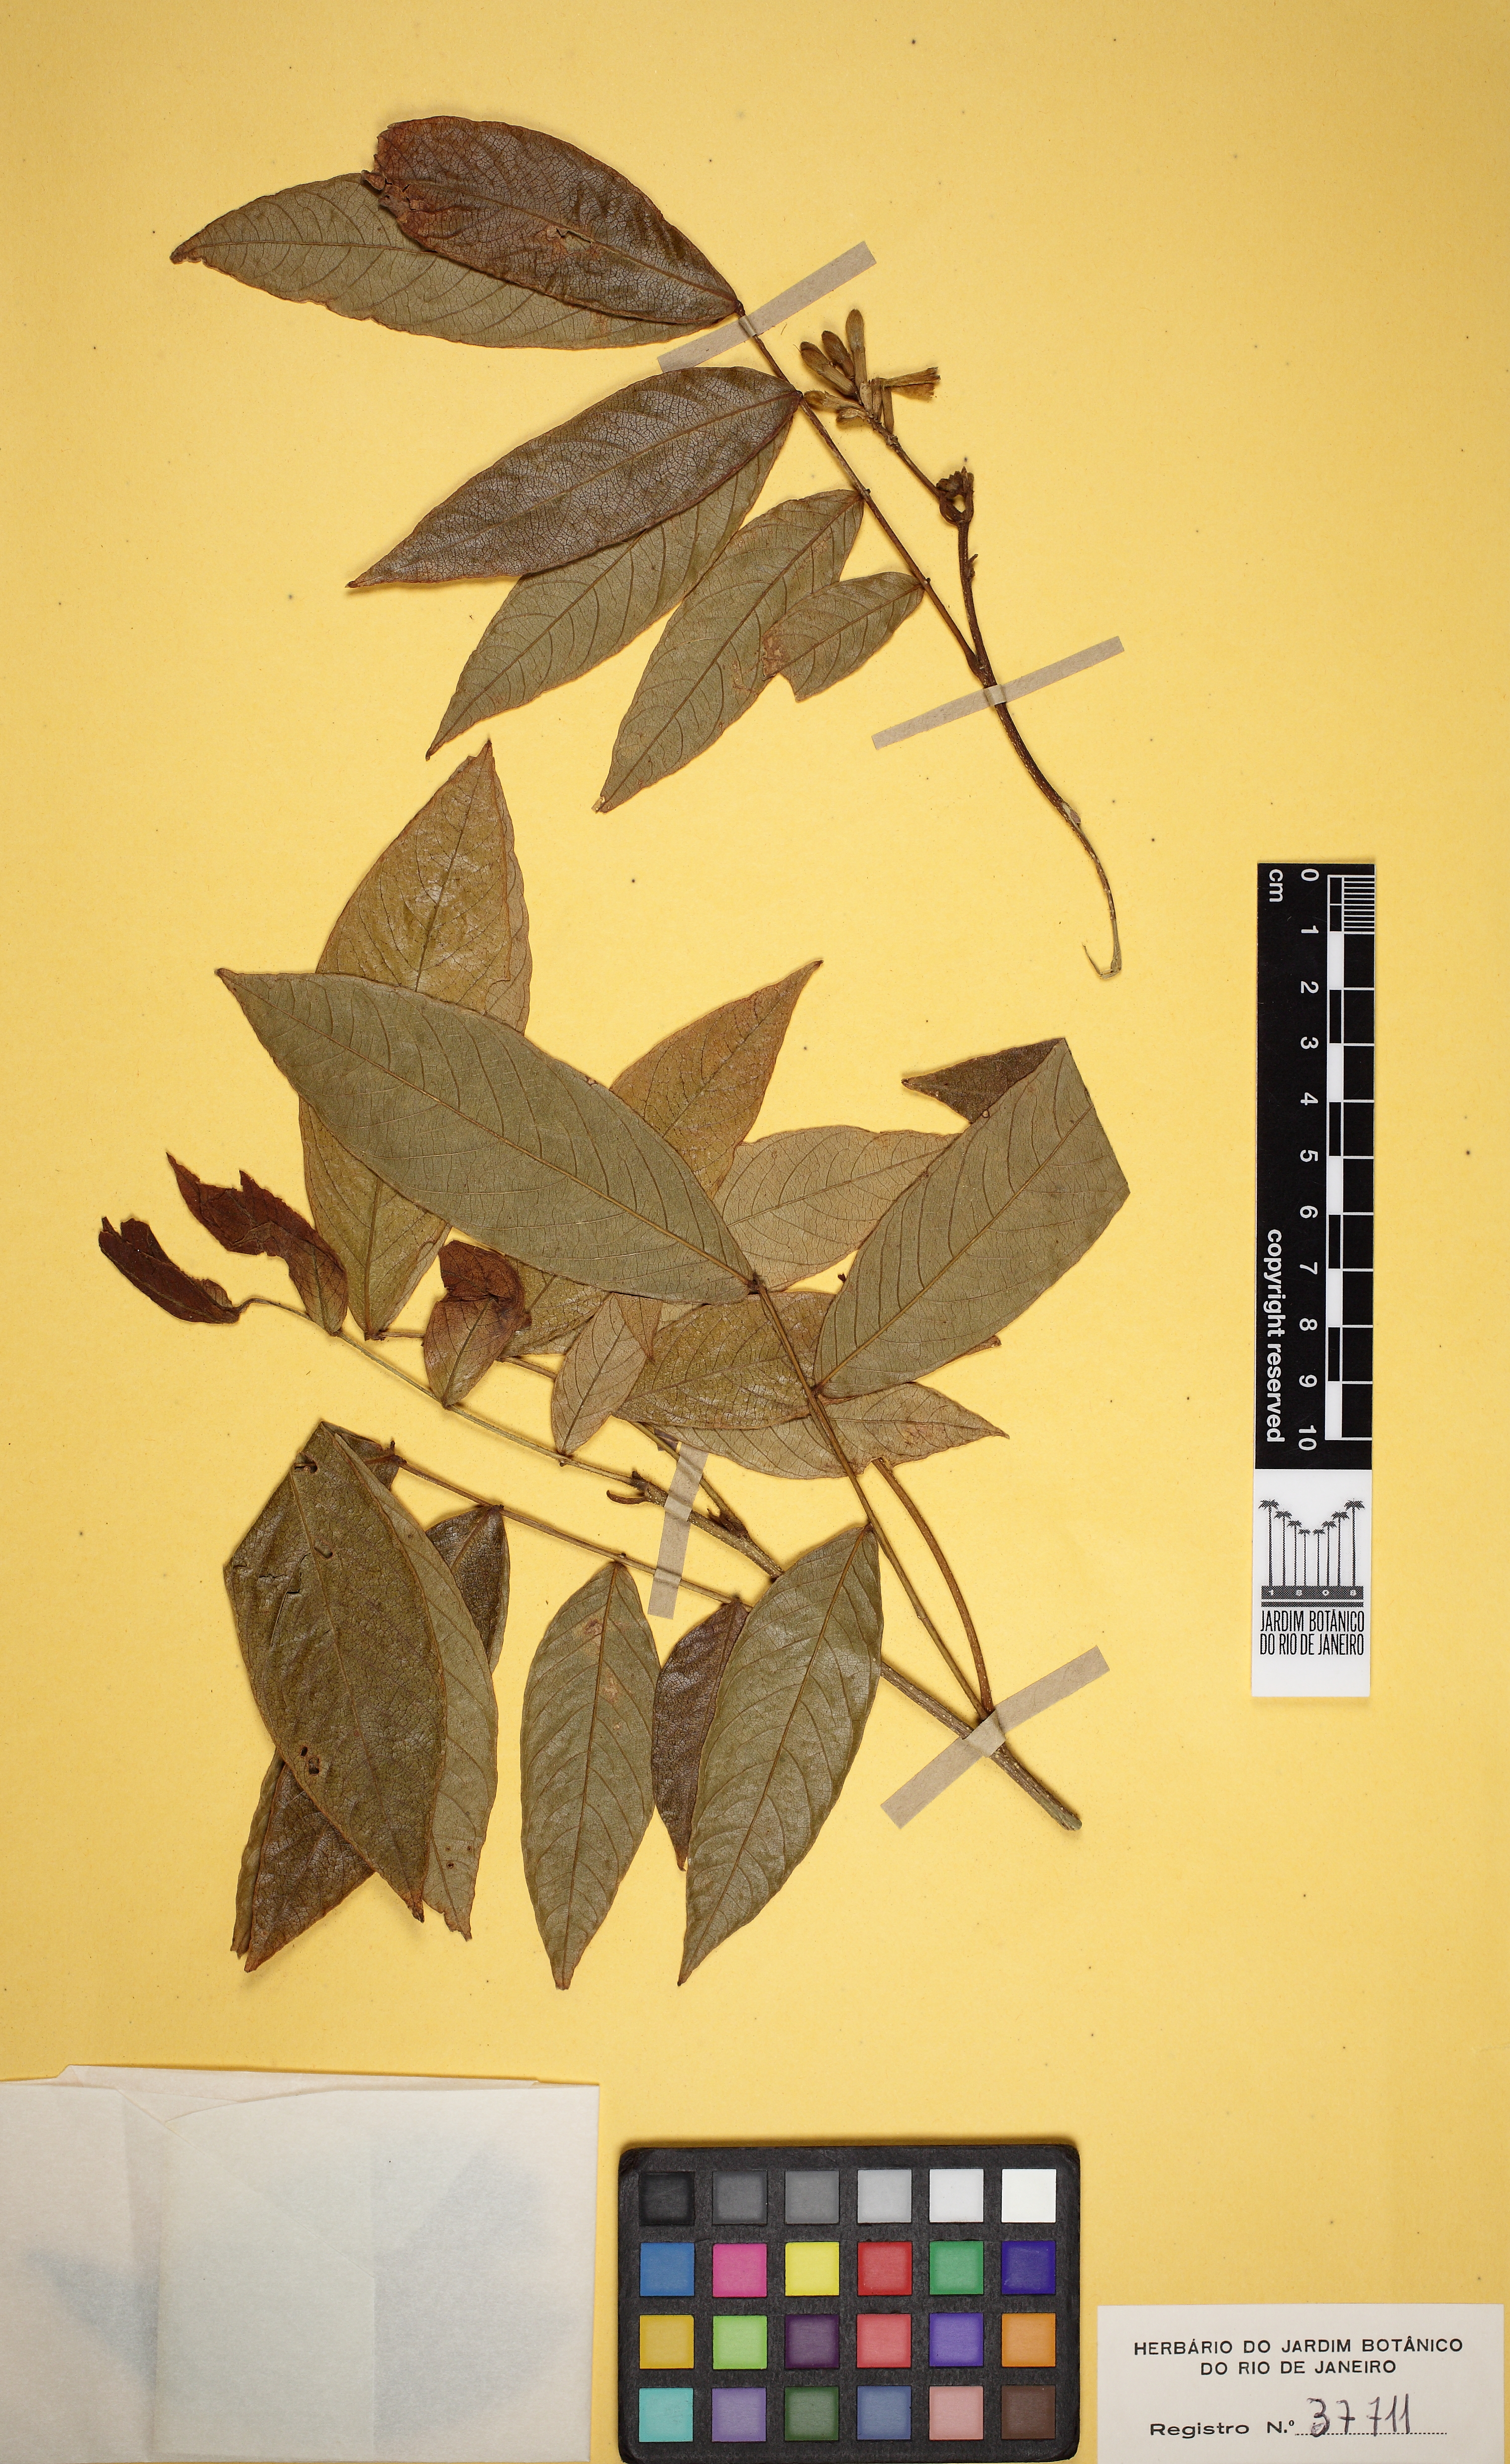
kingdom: Plantae
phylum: Tracheophyta
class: Magnoliopsida
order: Fabales
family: Fabaceae
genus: Inga
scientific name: Inga striata
